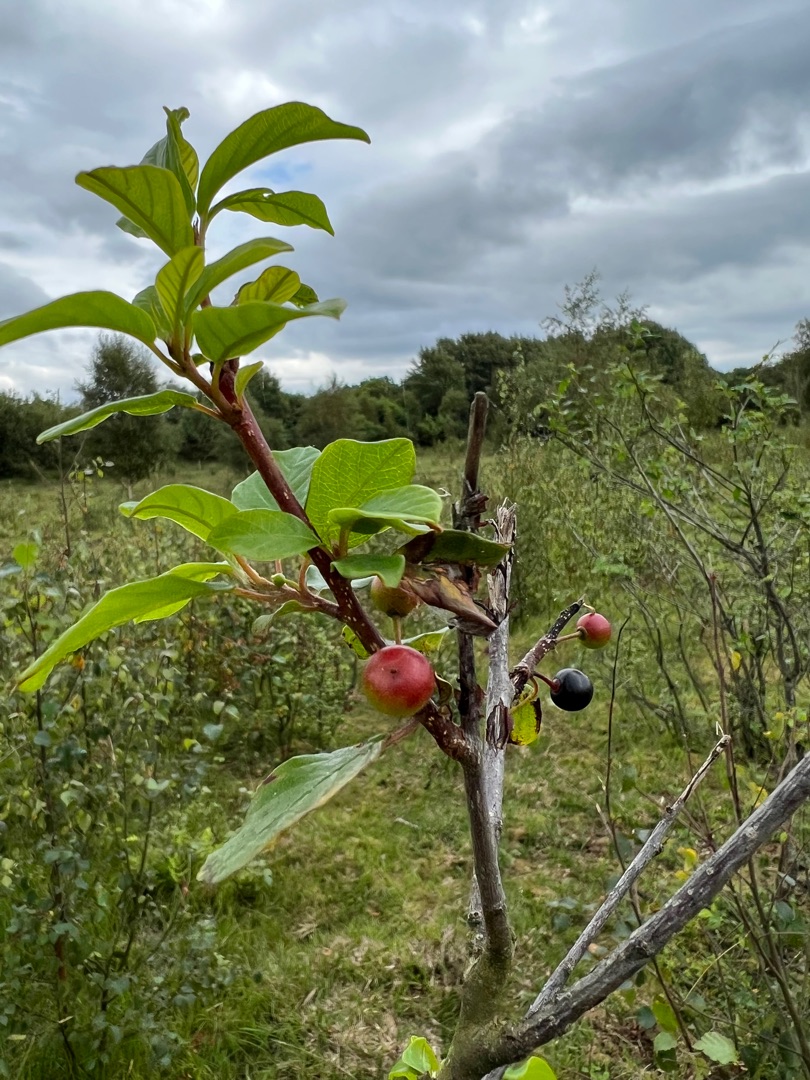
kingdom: Plantae
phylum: Tracheophyta
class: Magnoliopsida
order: Rosales
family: Rhamnaceae
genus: Frangula
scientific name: Frangula alnus
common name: Tørst
